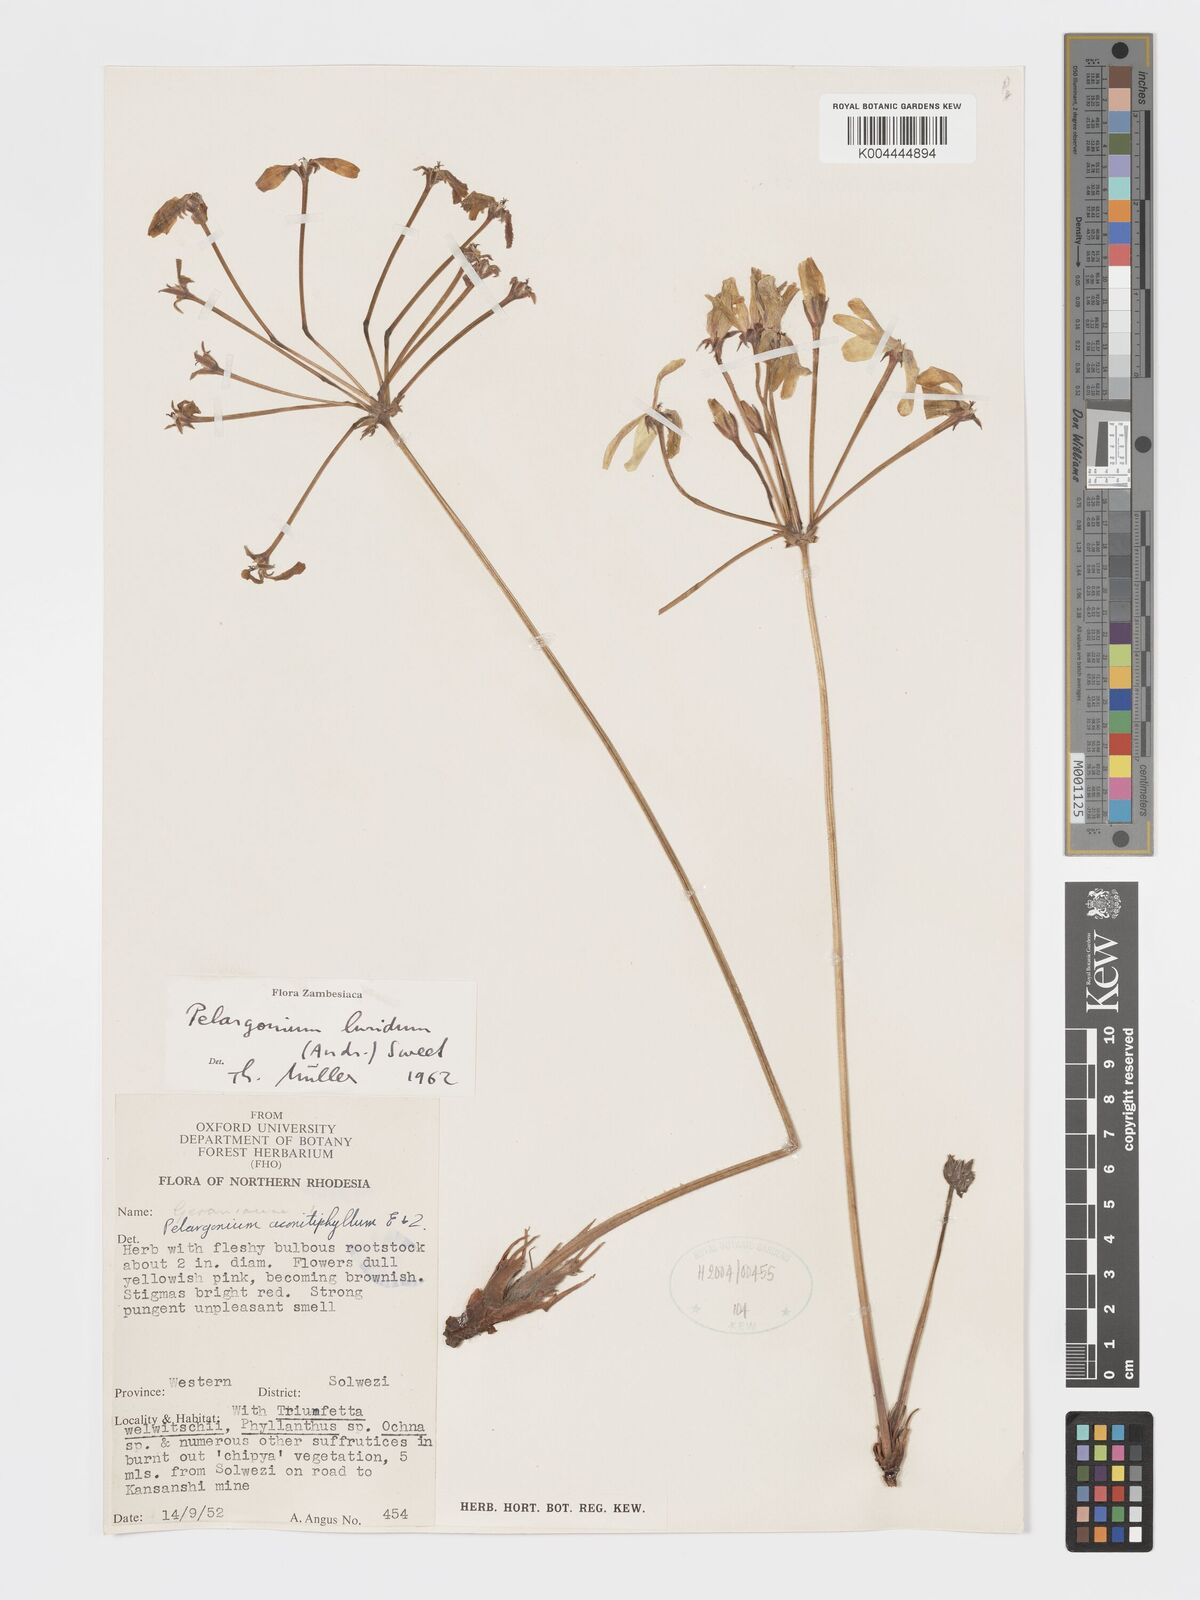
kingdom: Plantae
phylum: Tracheophyta
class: Magnoliopsida
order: Geraniales
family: Geraniaceae
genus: Pelargonium
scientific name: Pelargonium luridum
